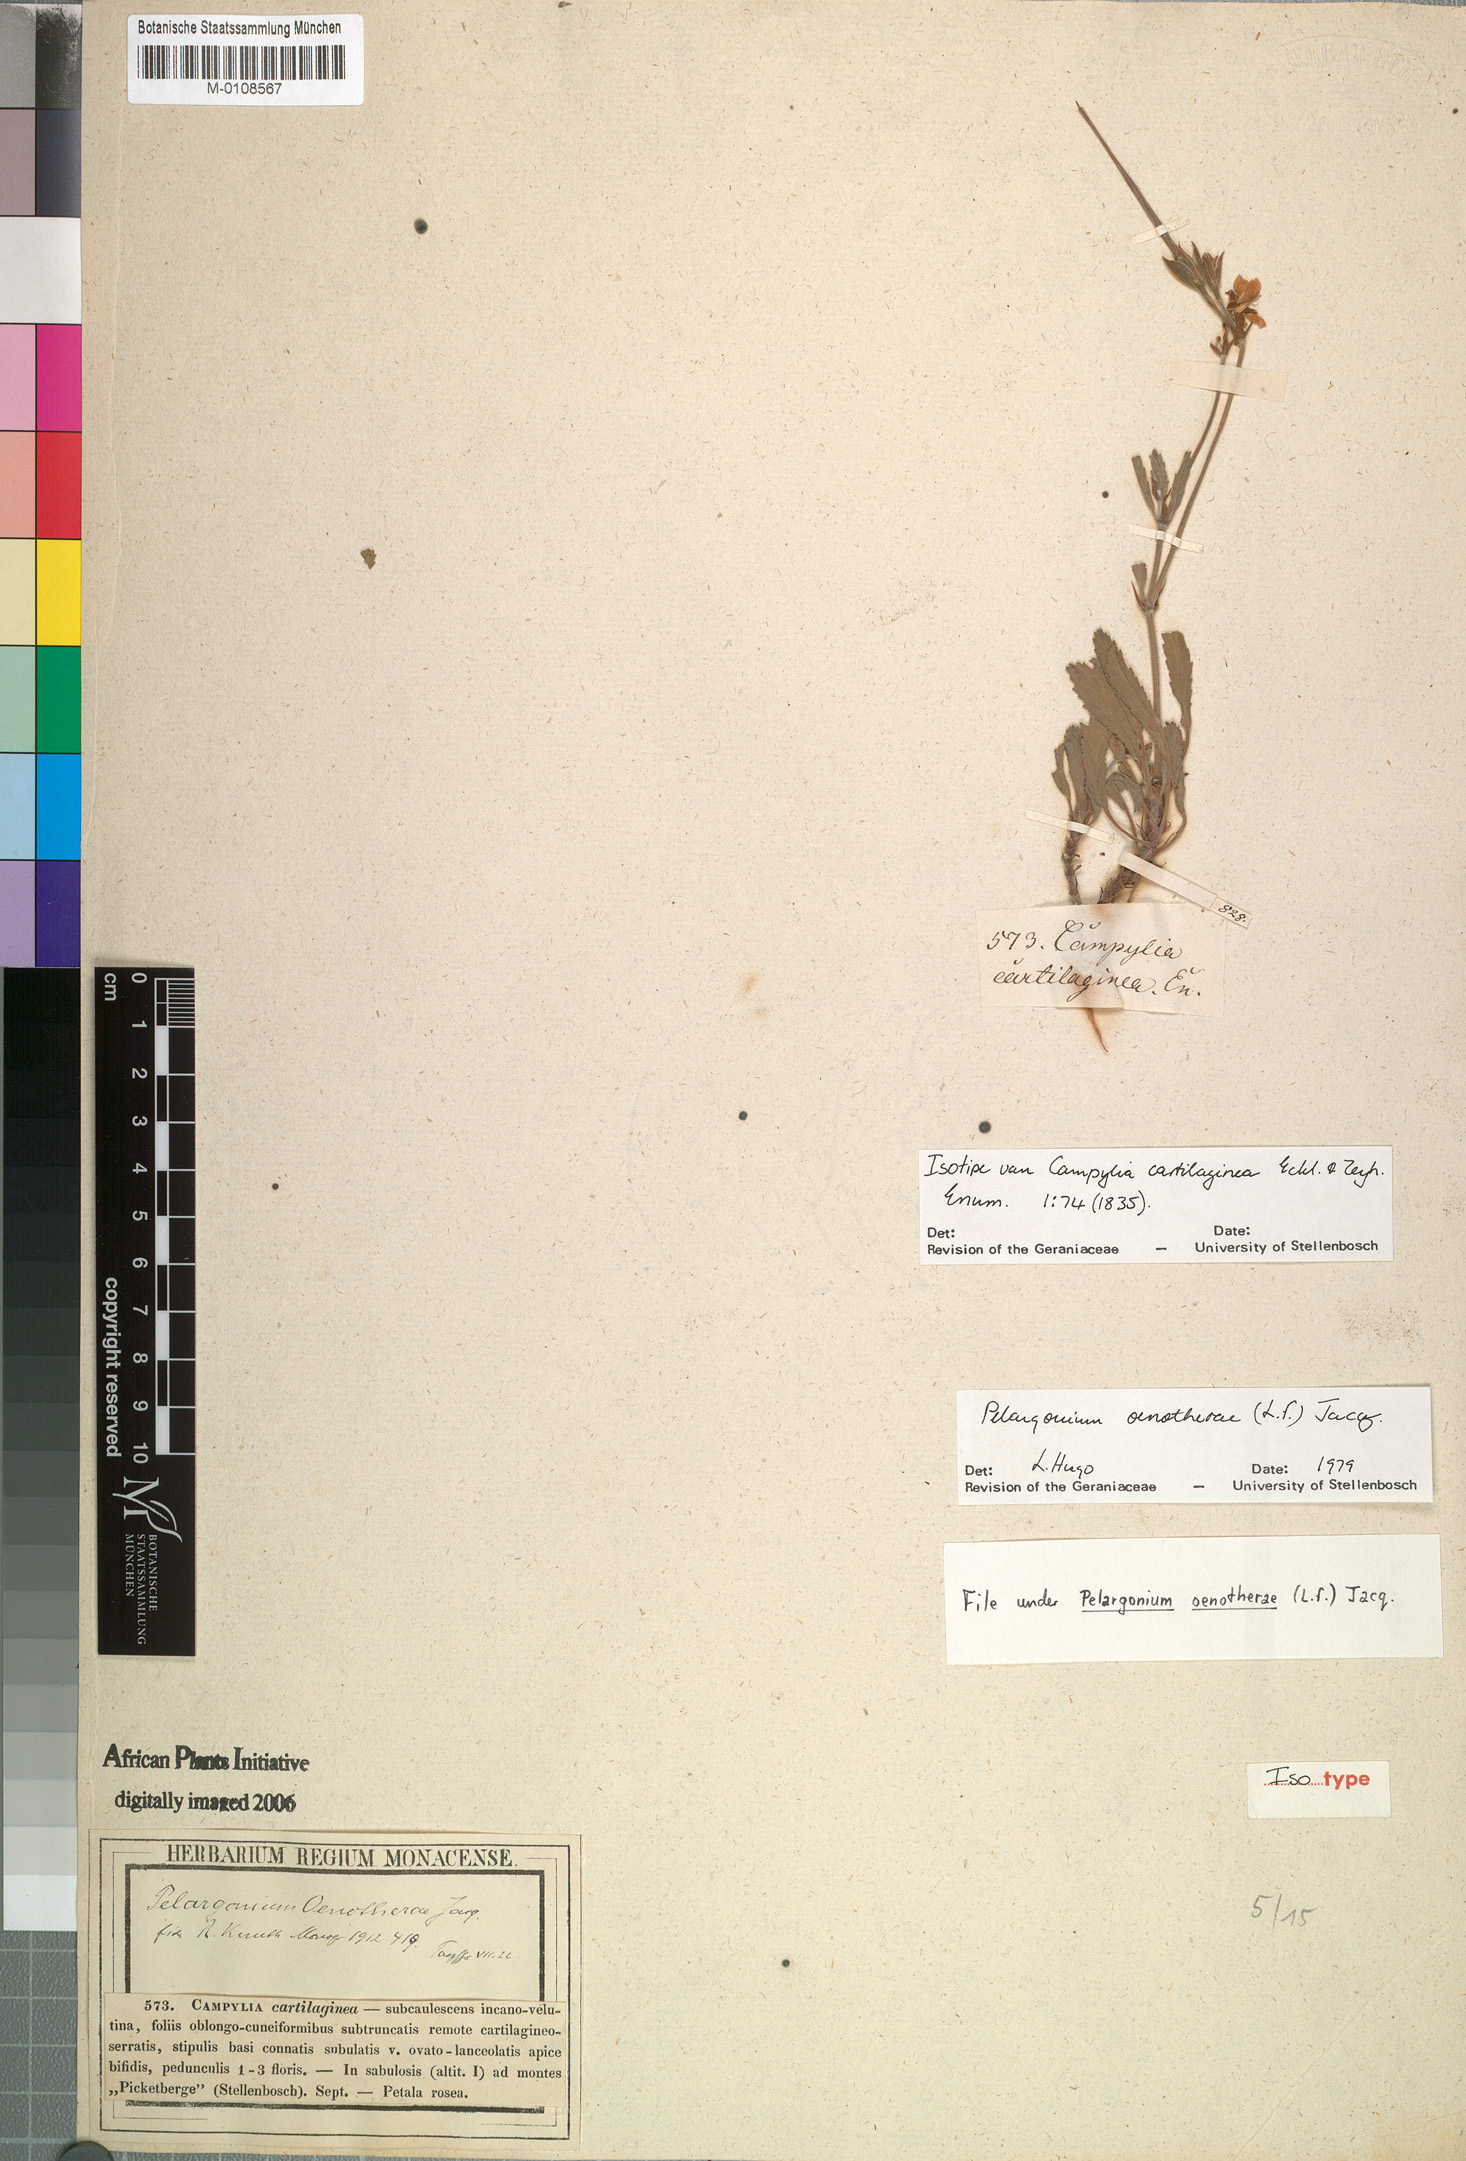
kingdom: Plantae
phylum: Tracheophyta
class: Magnoliopsida
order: Geraniales
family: Geraniaceae
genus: Pelargonium
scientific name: Pelargonium oenothera
